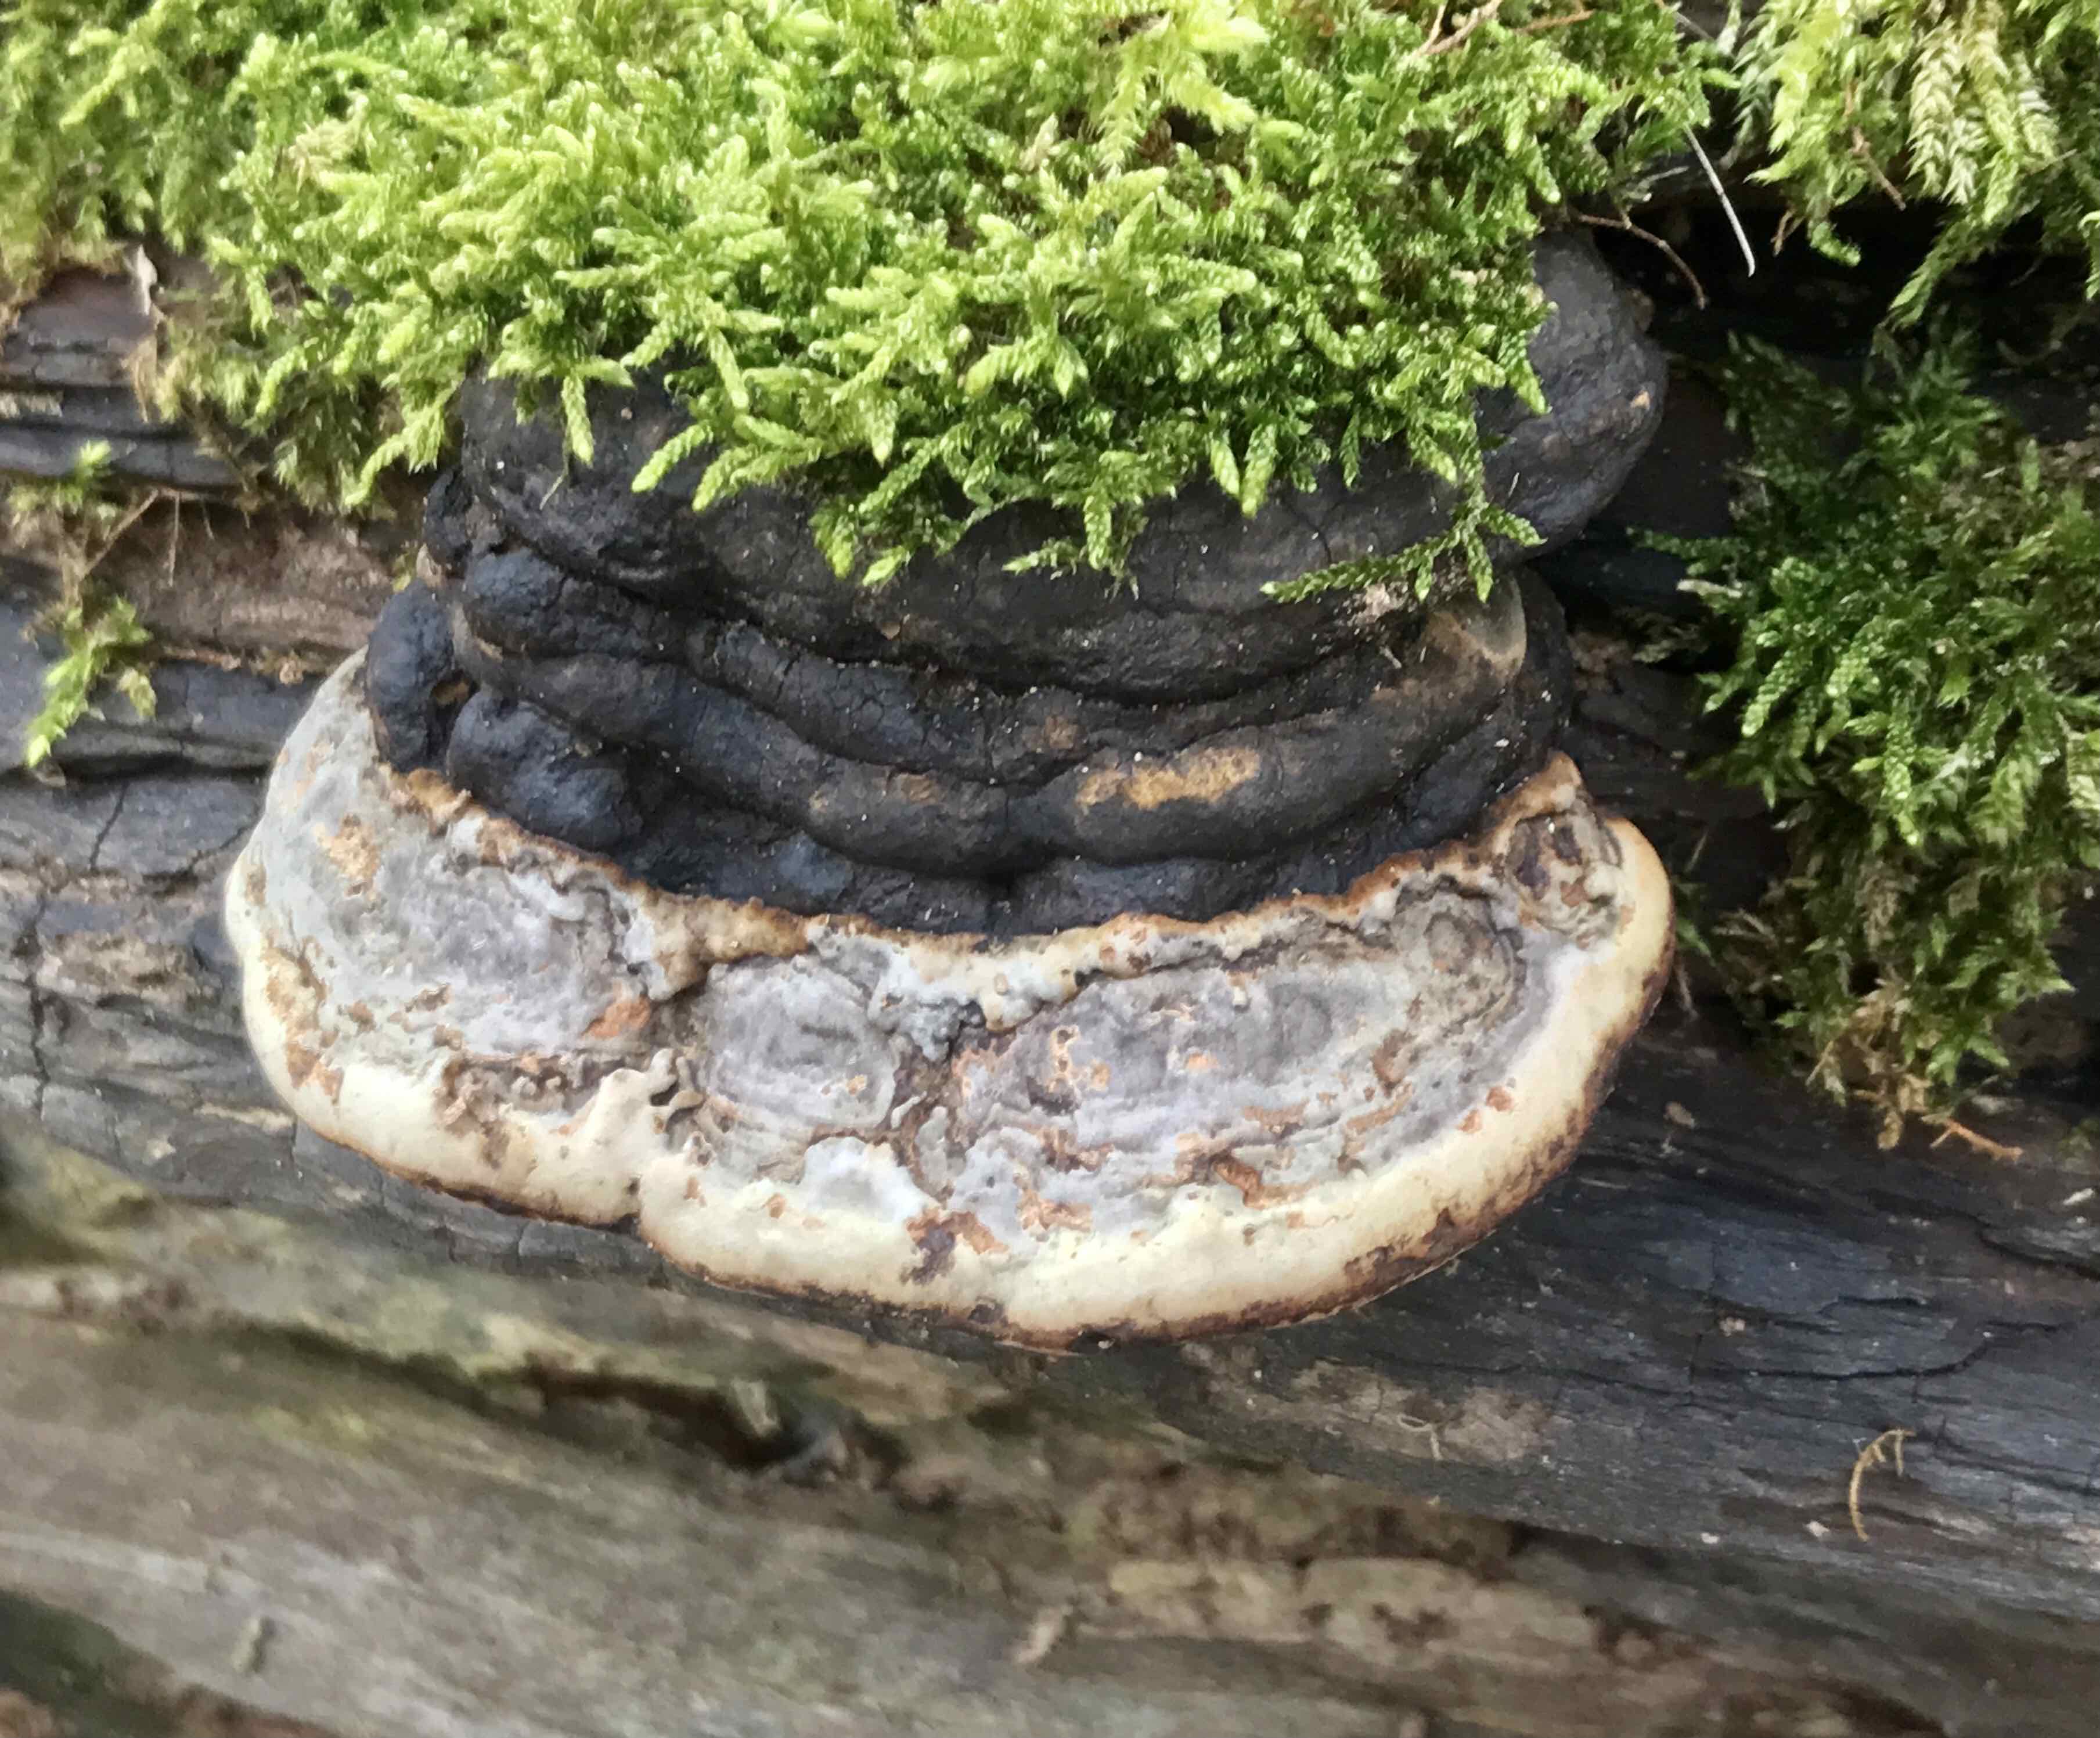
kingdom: Fungi
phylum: Basidiomycota
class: Agaricomycetes
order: Polyporales
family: Polyporaceae
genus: Fomes
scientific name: Fomes fomentarius
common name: tøndersvamp
